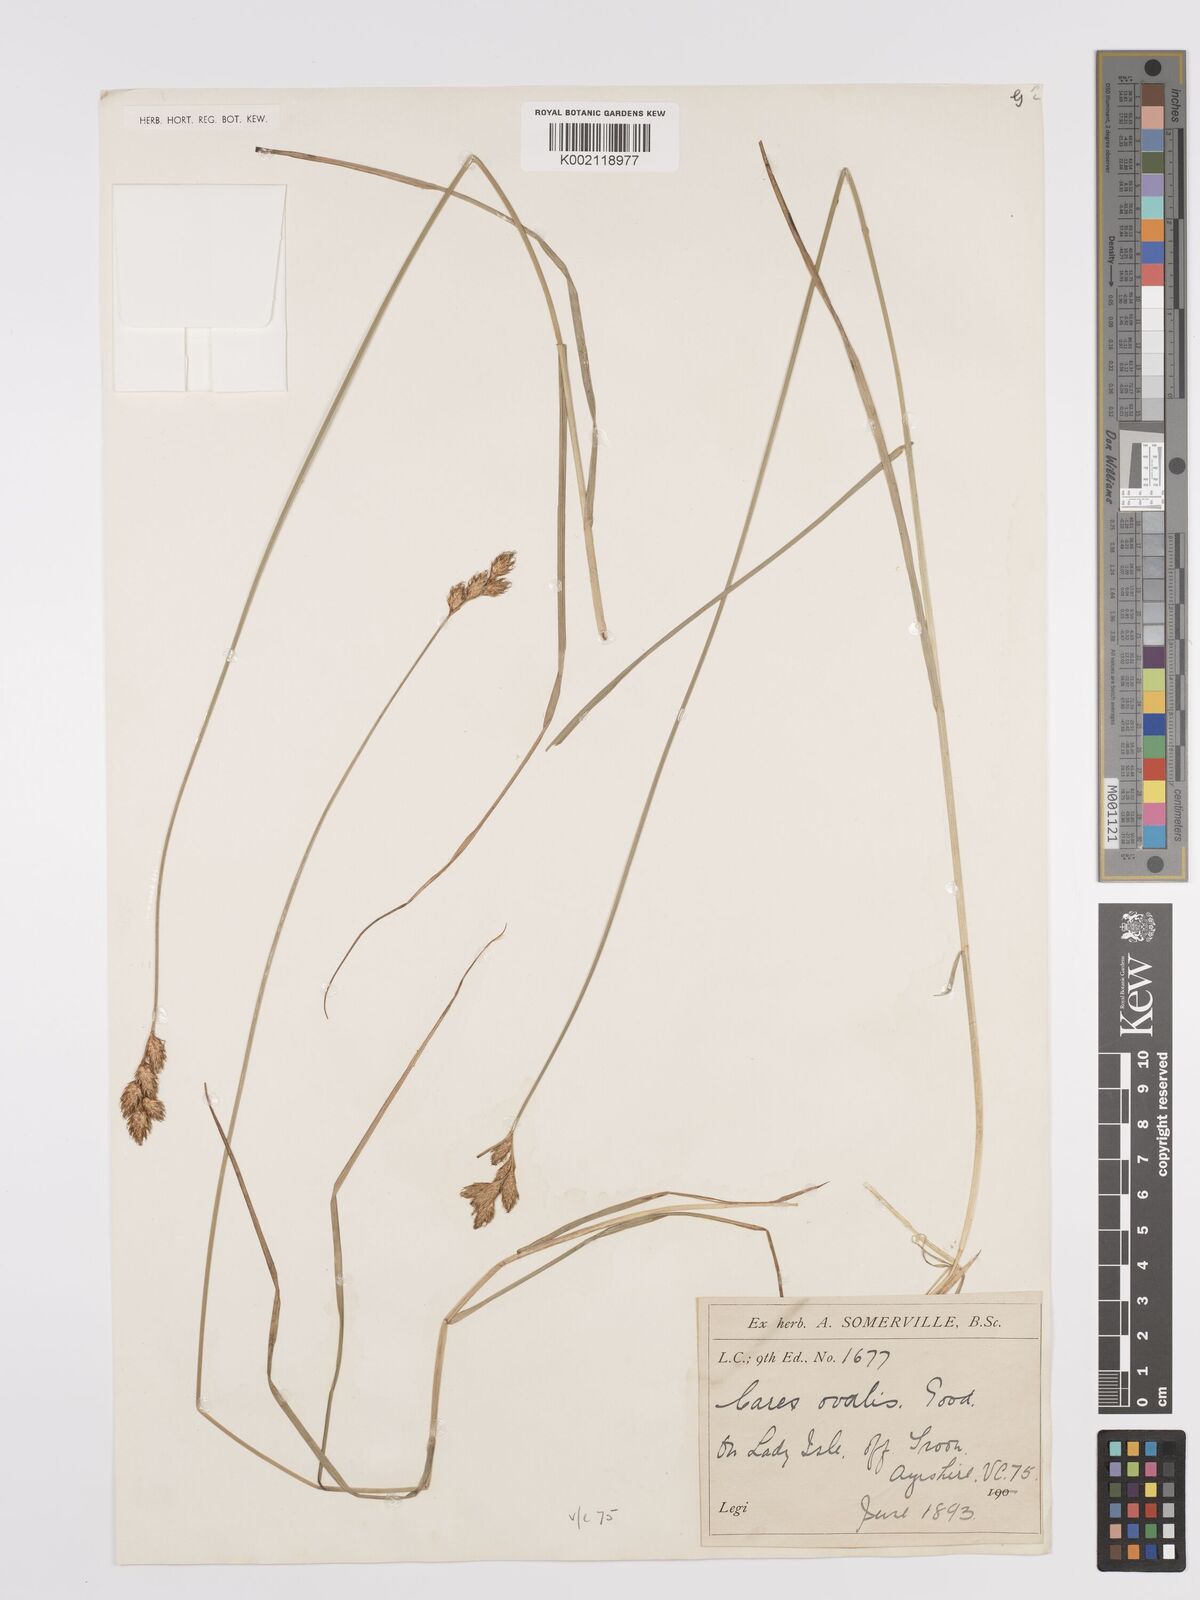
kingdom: Plantae
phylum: Tracheophyta
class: Liliopsida
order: Poales
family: Cyperaceae
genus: Carex
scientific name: Carex leporina
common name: Oval sedge
